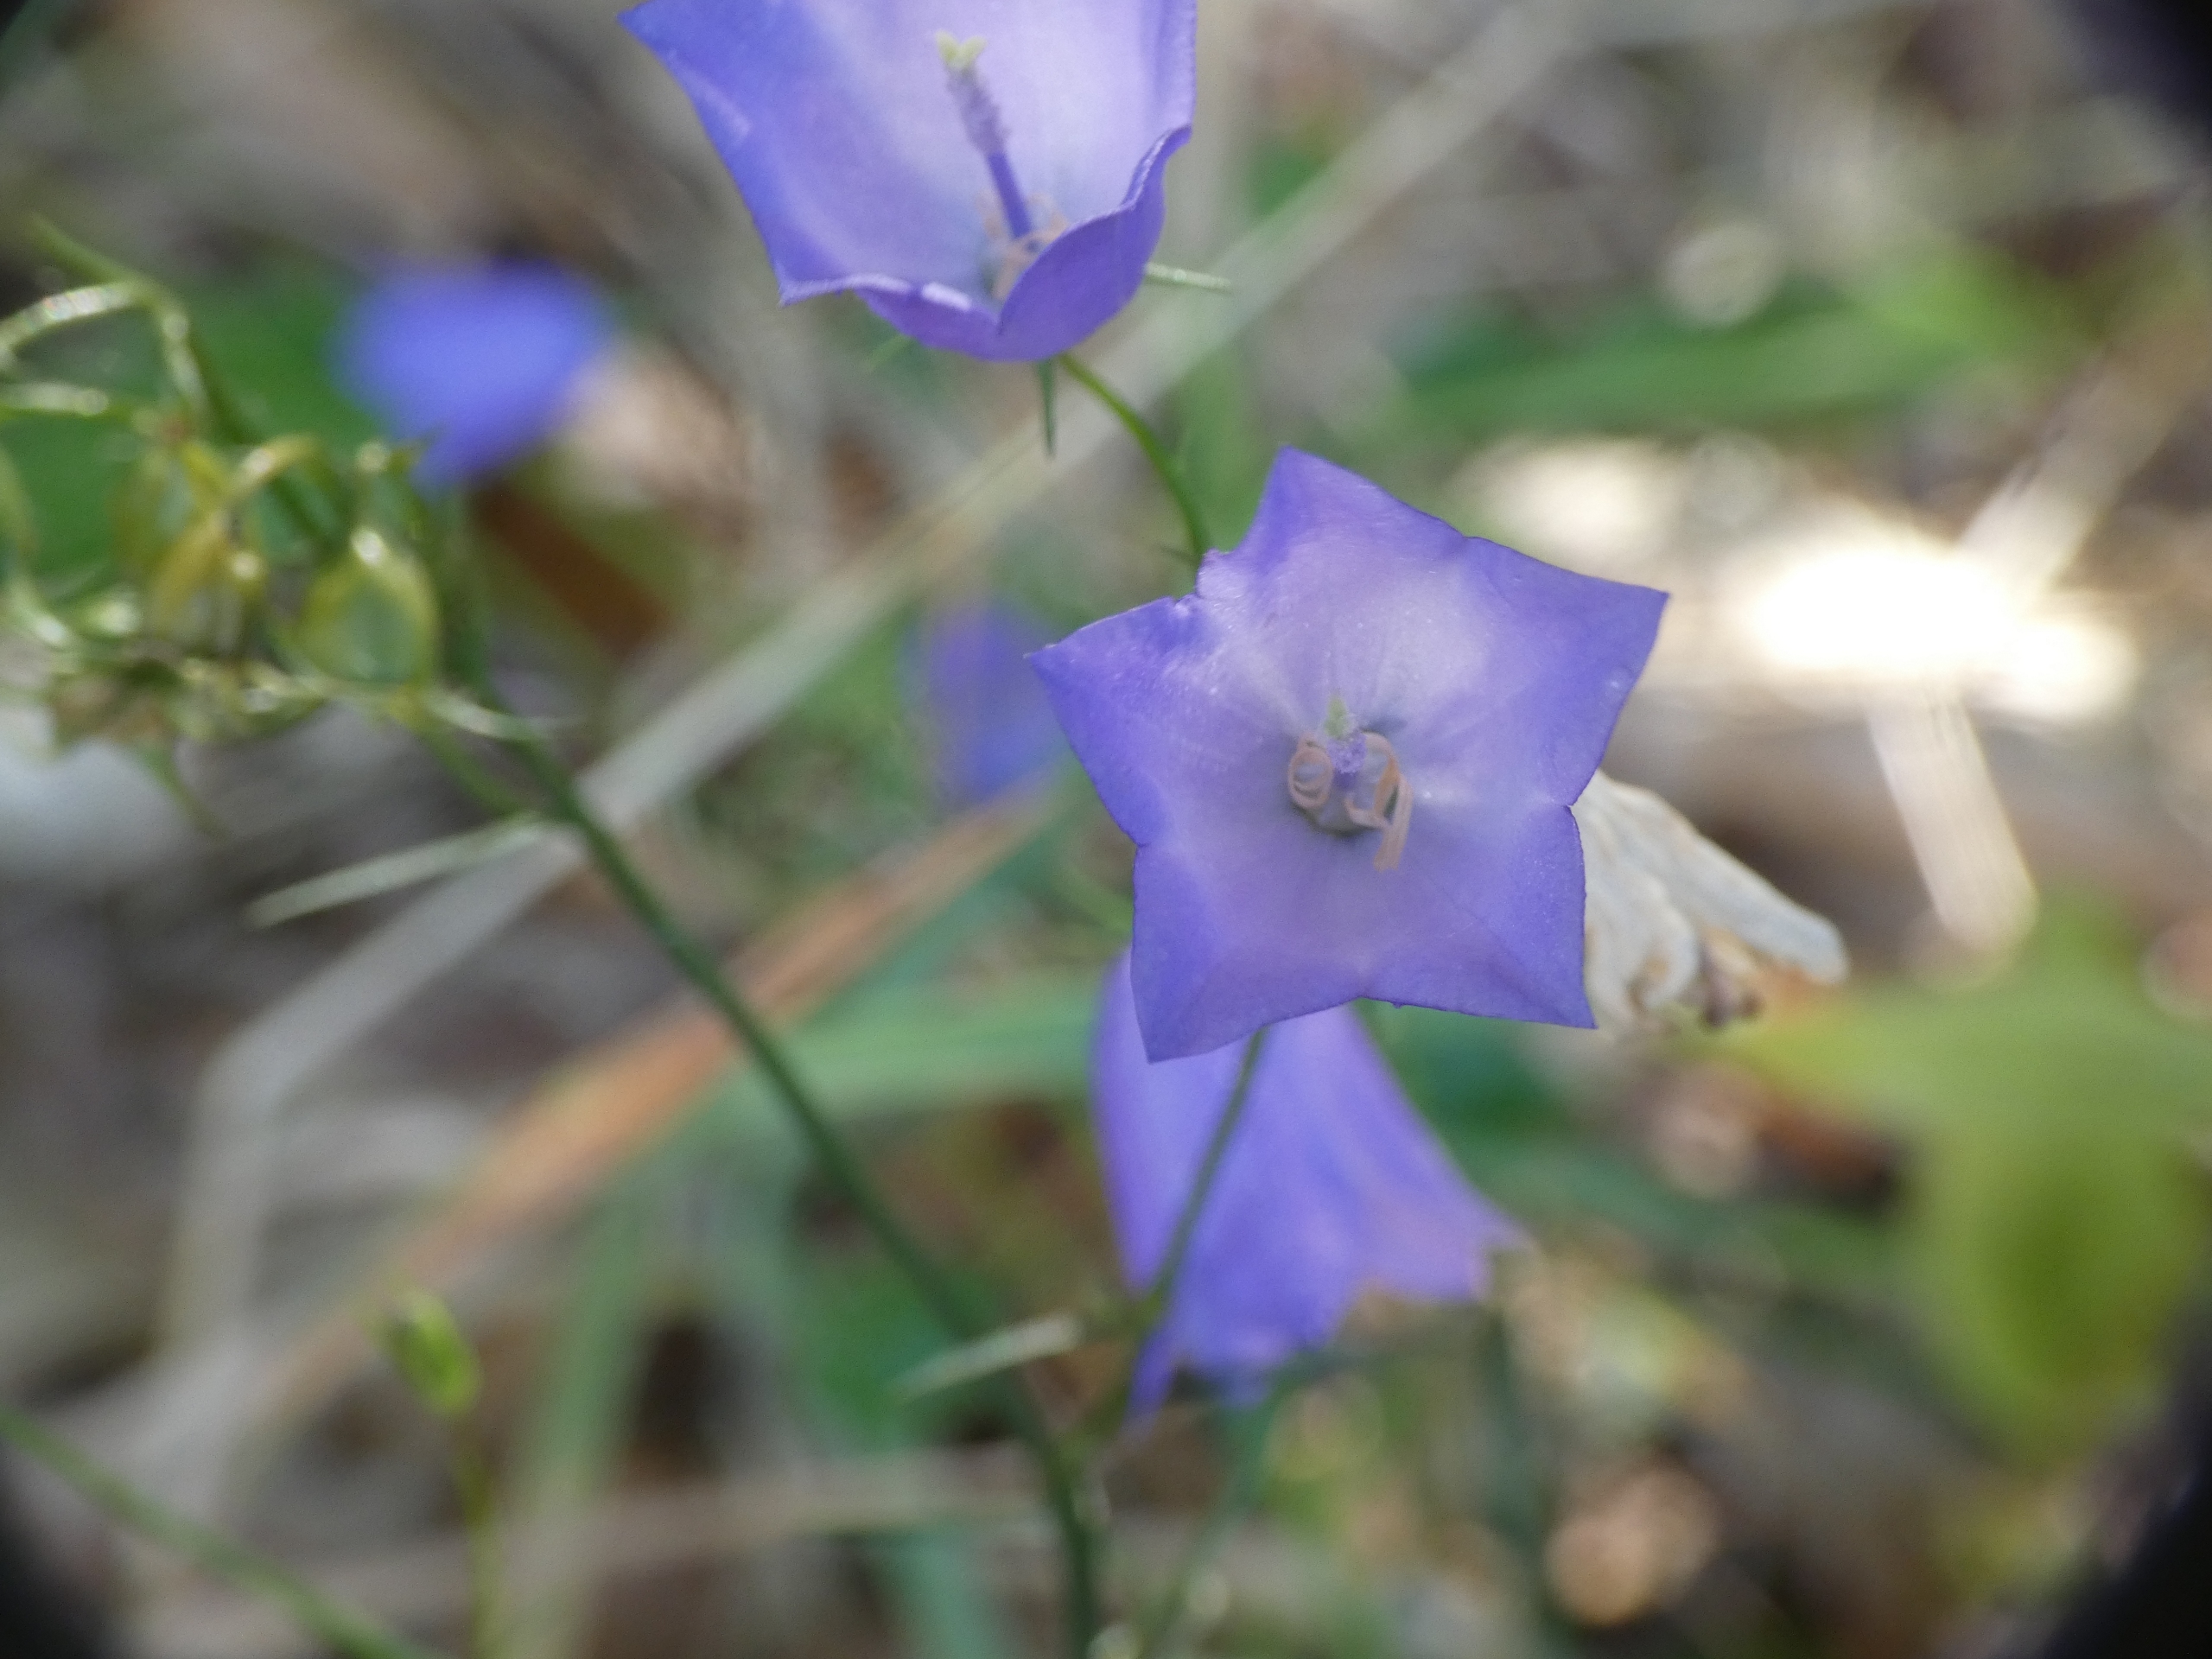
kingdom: Plantae
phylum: Tracheophyta
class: Magnoliopsida
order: Asterales
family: Campanulaceae
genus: Campanula
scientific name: Campanula rotundifolia
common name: Liden klokke
